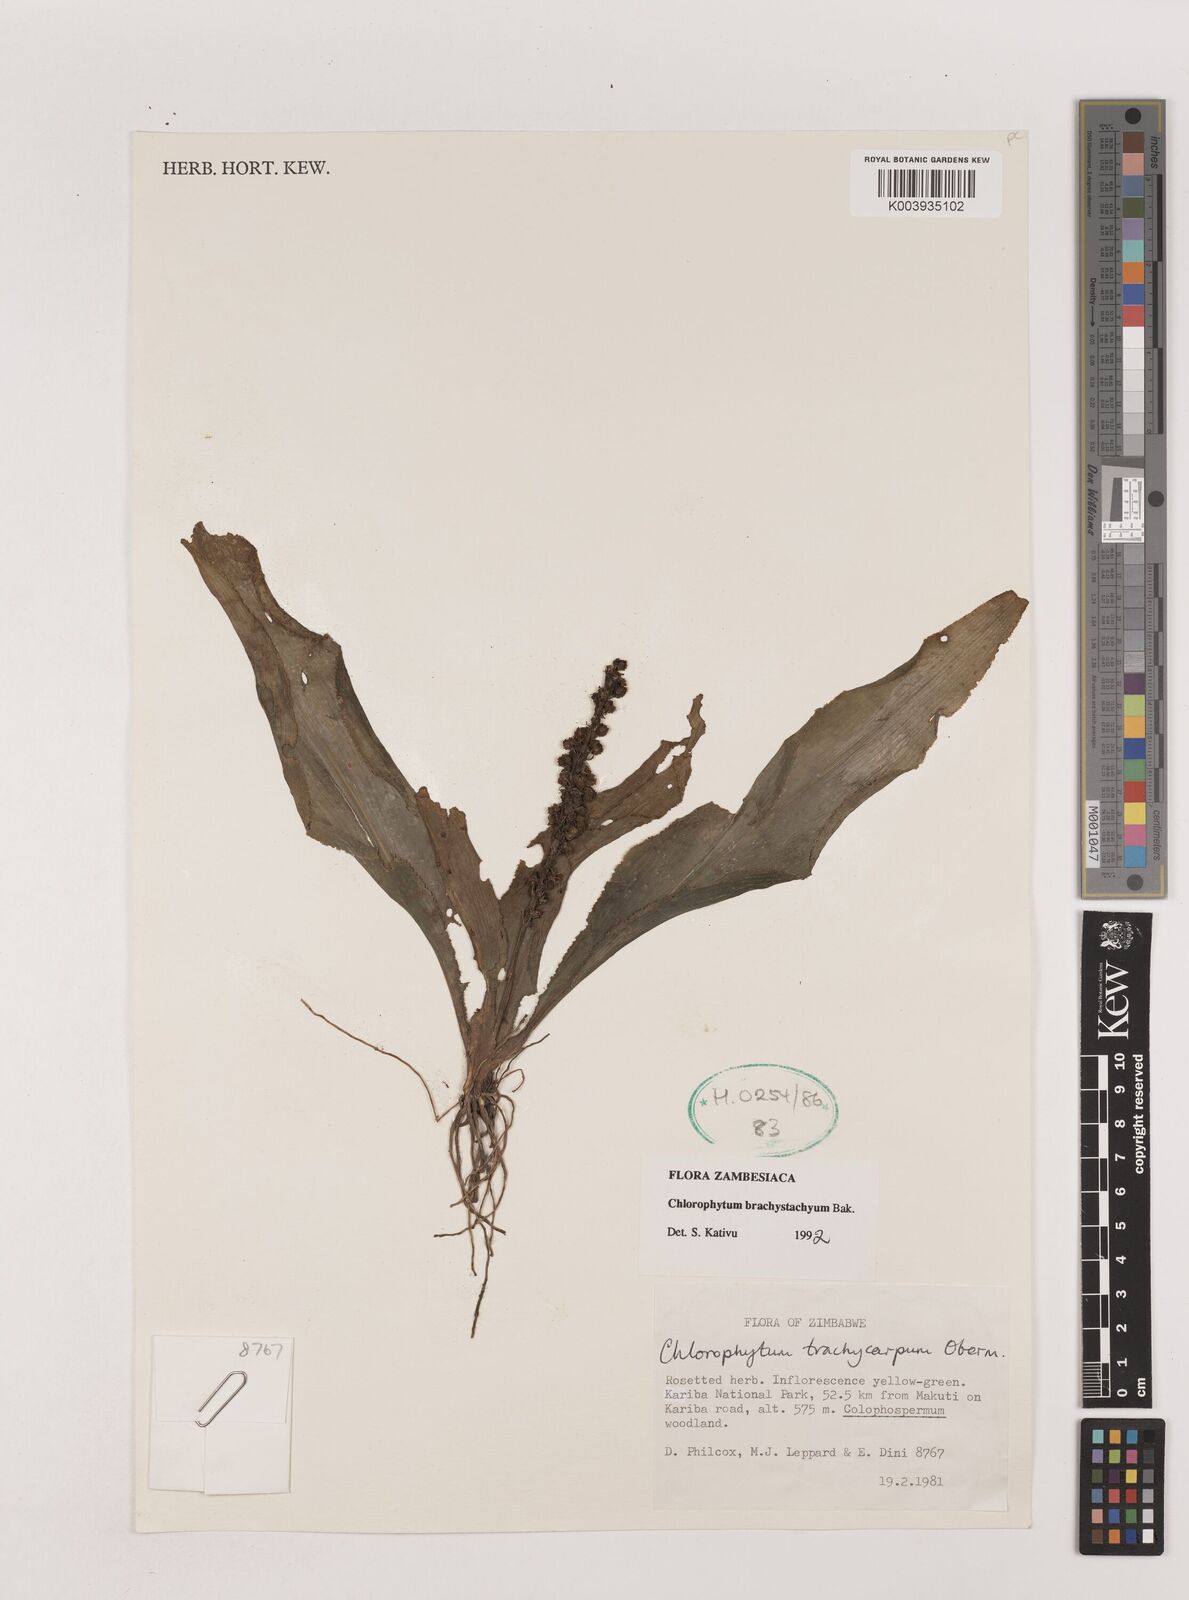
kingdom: Plantae
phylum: Tracheophyta
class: Liliopsida
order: Asparagales
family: Asparagaceae
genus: Chlorophytum
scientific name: Chlorophytum brachystachyum
